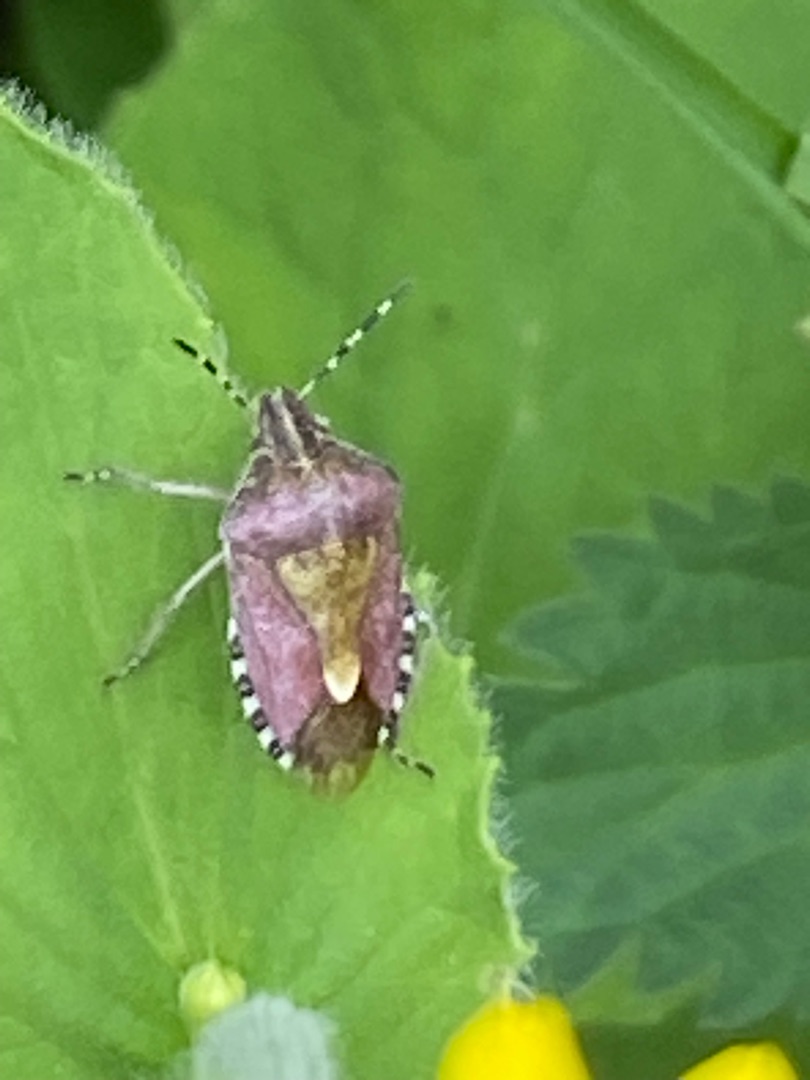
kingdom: Animalia
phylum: Arthropoda
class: Insecta
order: Hemiptera
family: Pentatomidae
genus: Dolycoris
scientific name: Dolycoris baccarum
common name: Almindelig bærtæge
